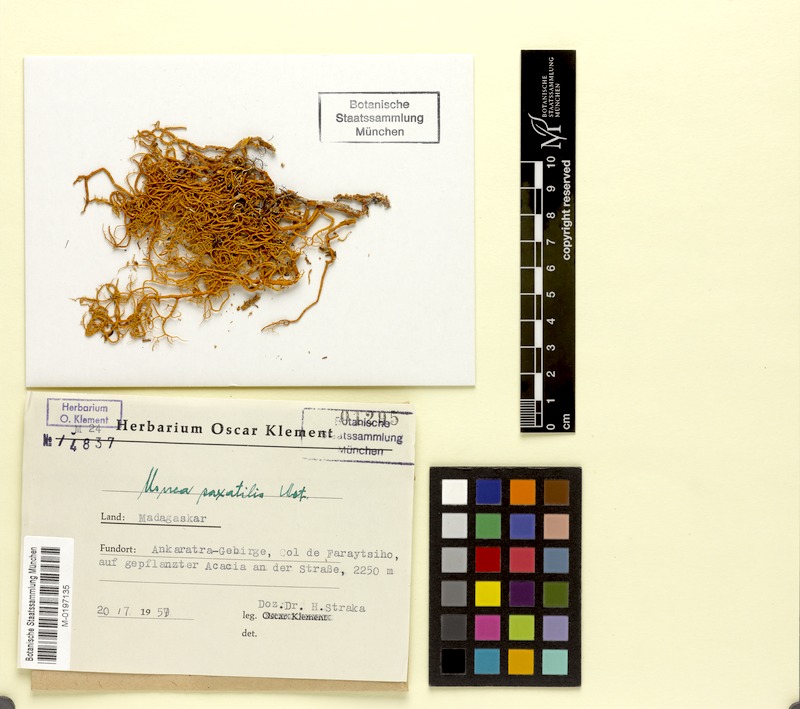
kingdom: Fungi
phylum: Ascomycota
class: Lecanoromycetes
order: Lecanorales
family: Parmeliaceae
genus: Usnea
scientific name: Usnea
